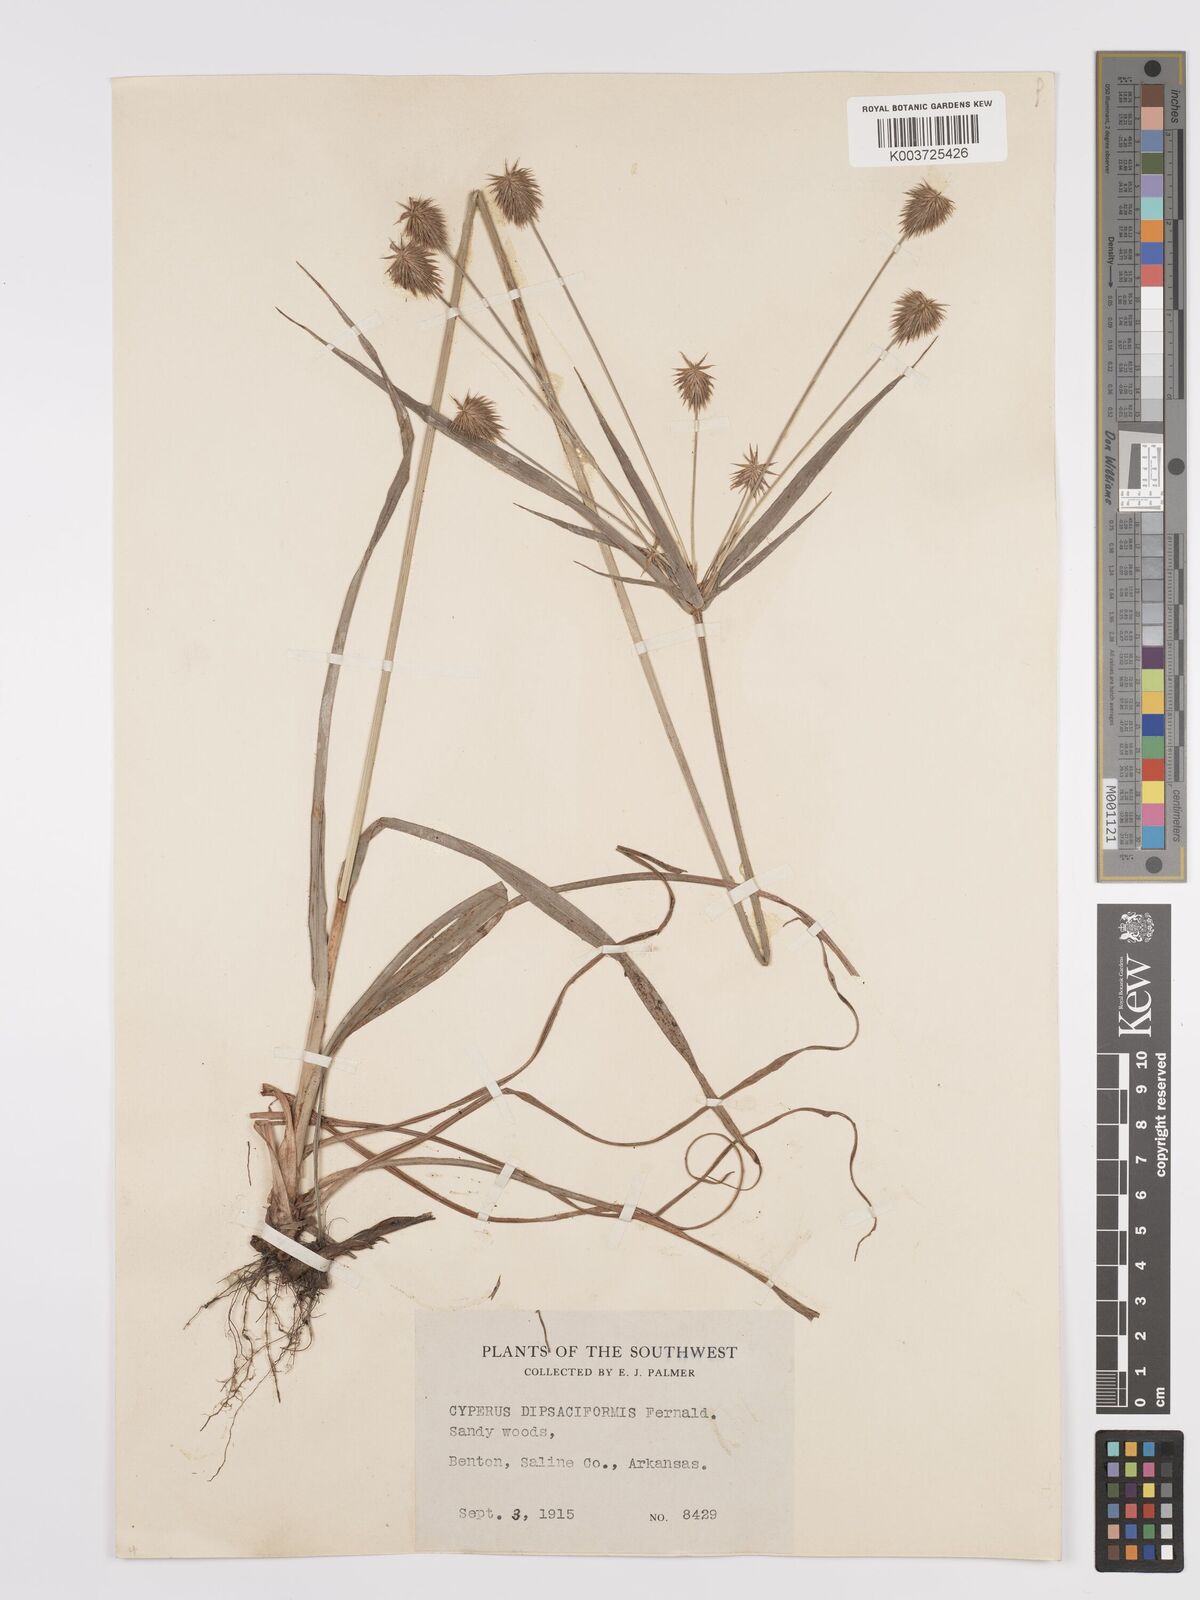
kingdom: Plantae
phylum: Tracheophyta
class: Liliopsida
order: Poales
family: Cyperaceae
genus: Cyperus
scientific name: Cyperus retrofractus
